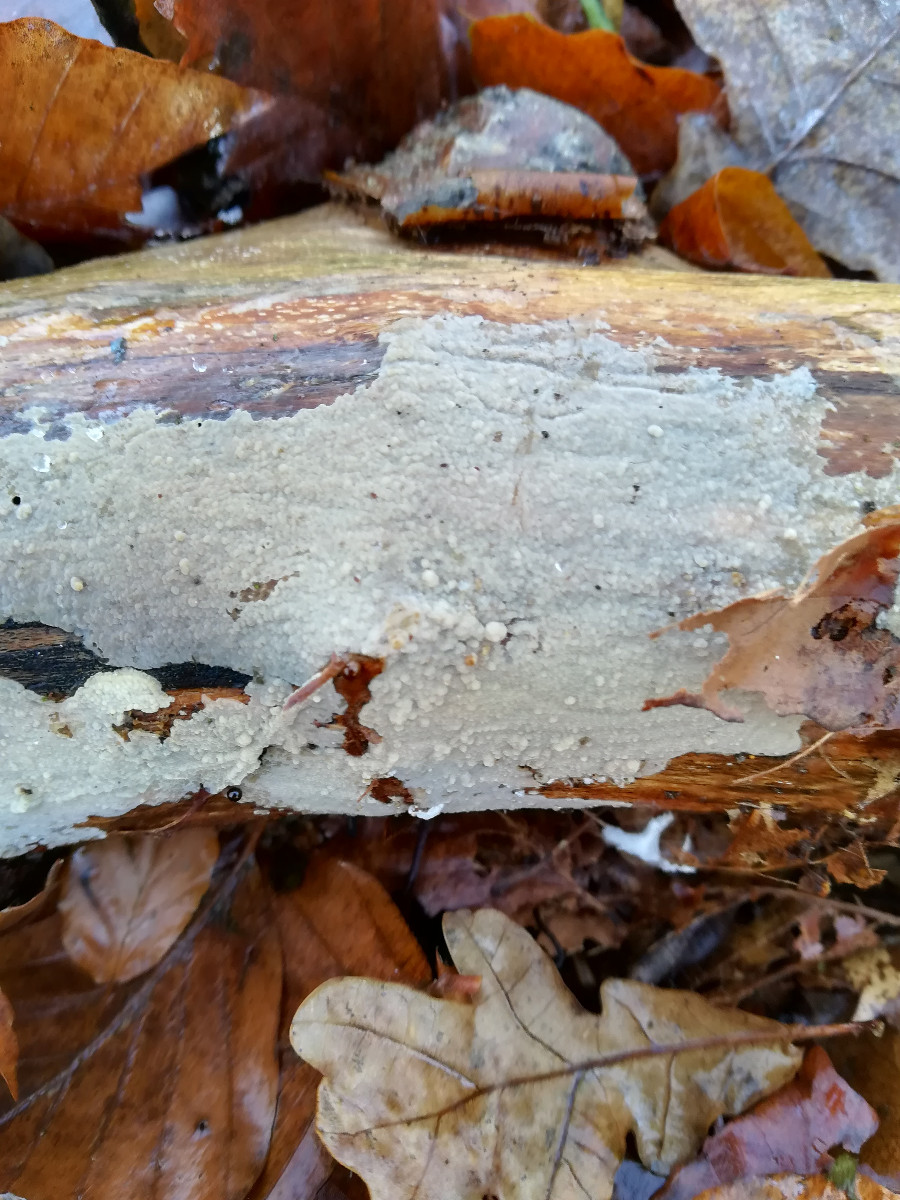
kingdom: Fungi
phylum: Basidiomycota
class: Agaricomycetes
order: Agaricales
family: Radulomycetaceae
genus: Radulomyces
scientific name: Radulomyces confluens
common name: glat naftalinskind
